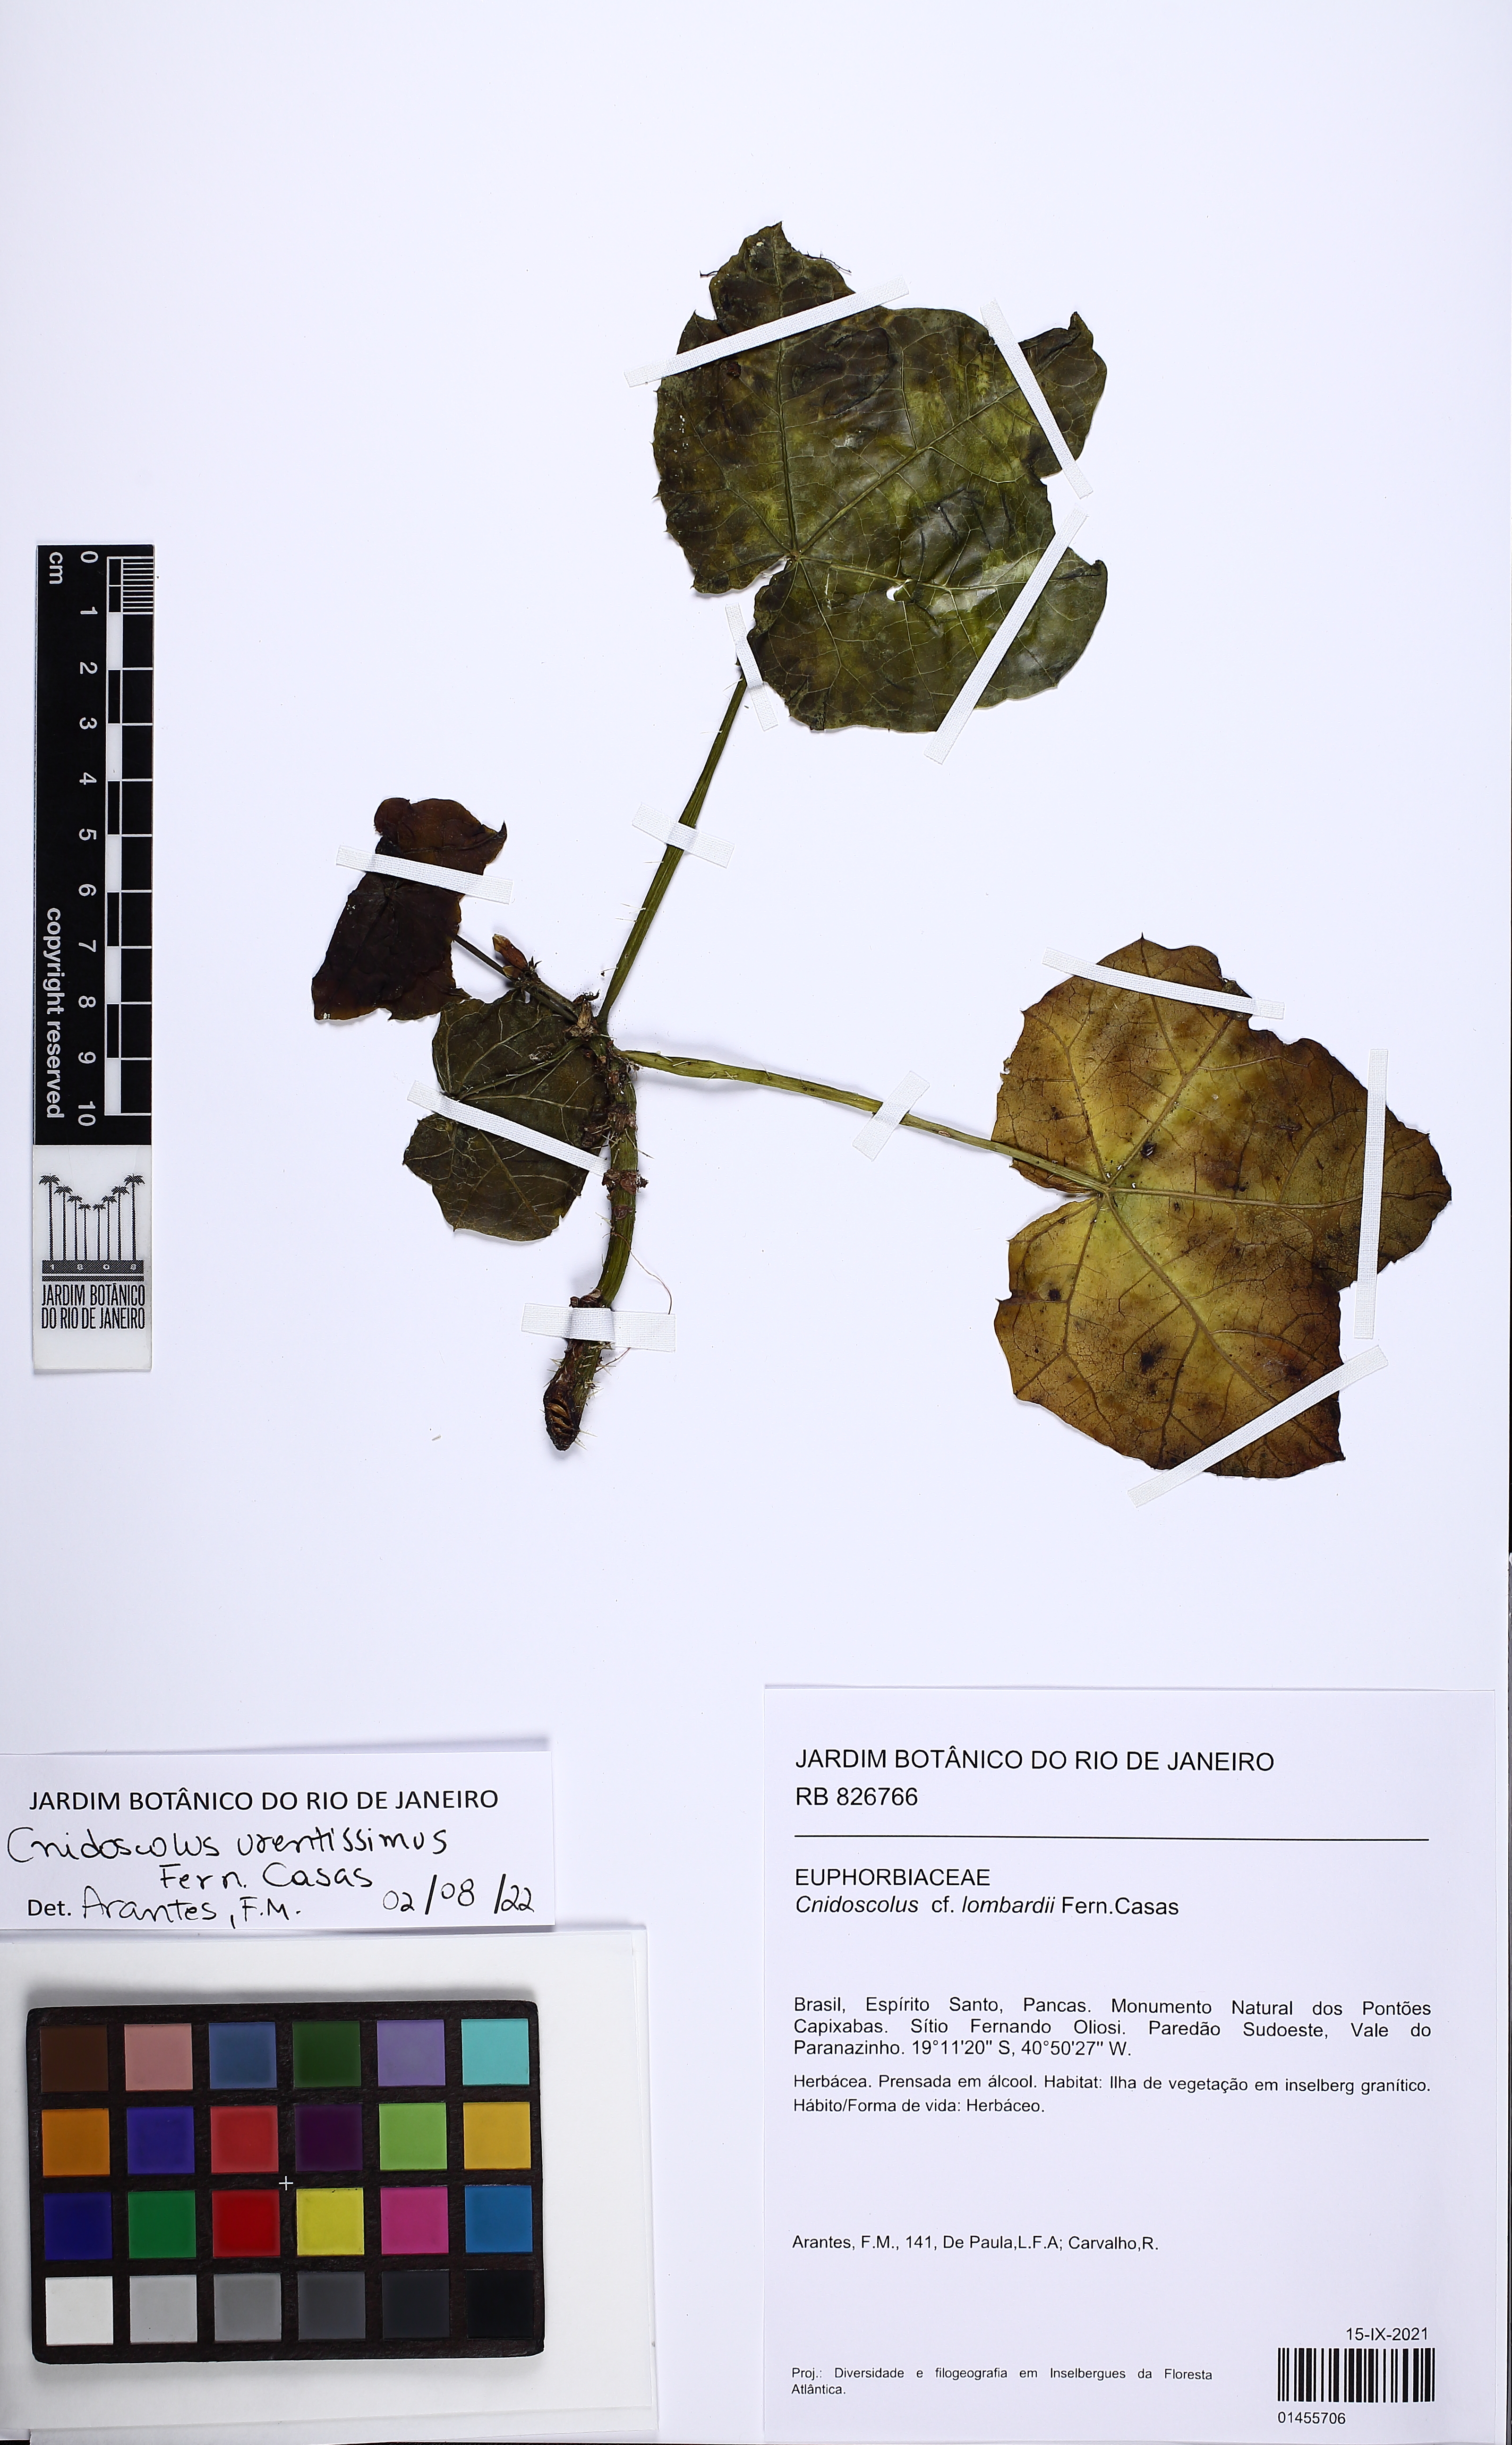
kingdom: Plantae
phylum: Tracheophyta
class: Magnoliopsida
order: Malpighiales
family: Euphorbiaceae
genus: Cnidoscolus
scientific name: Cnidoscolus urentissimus
